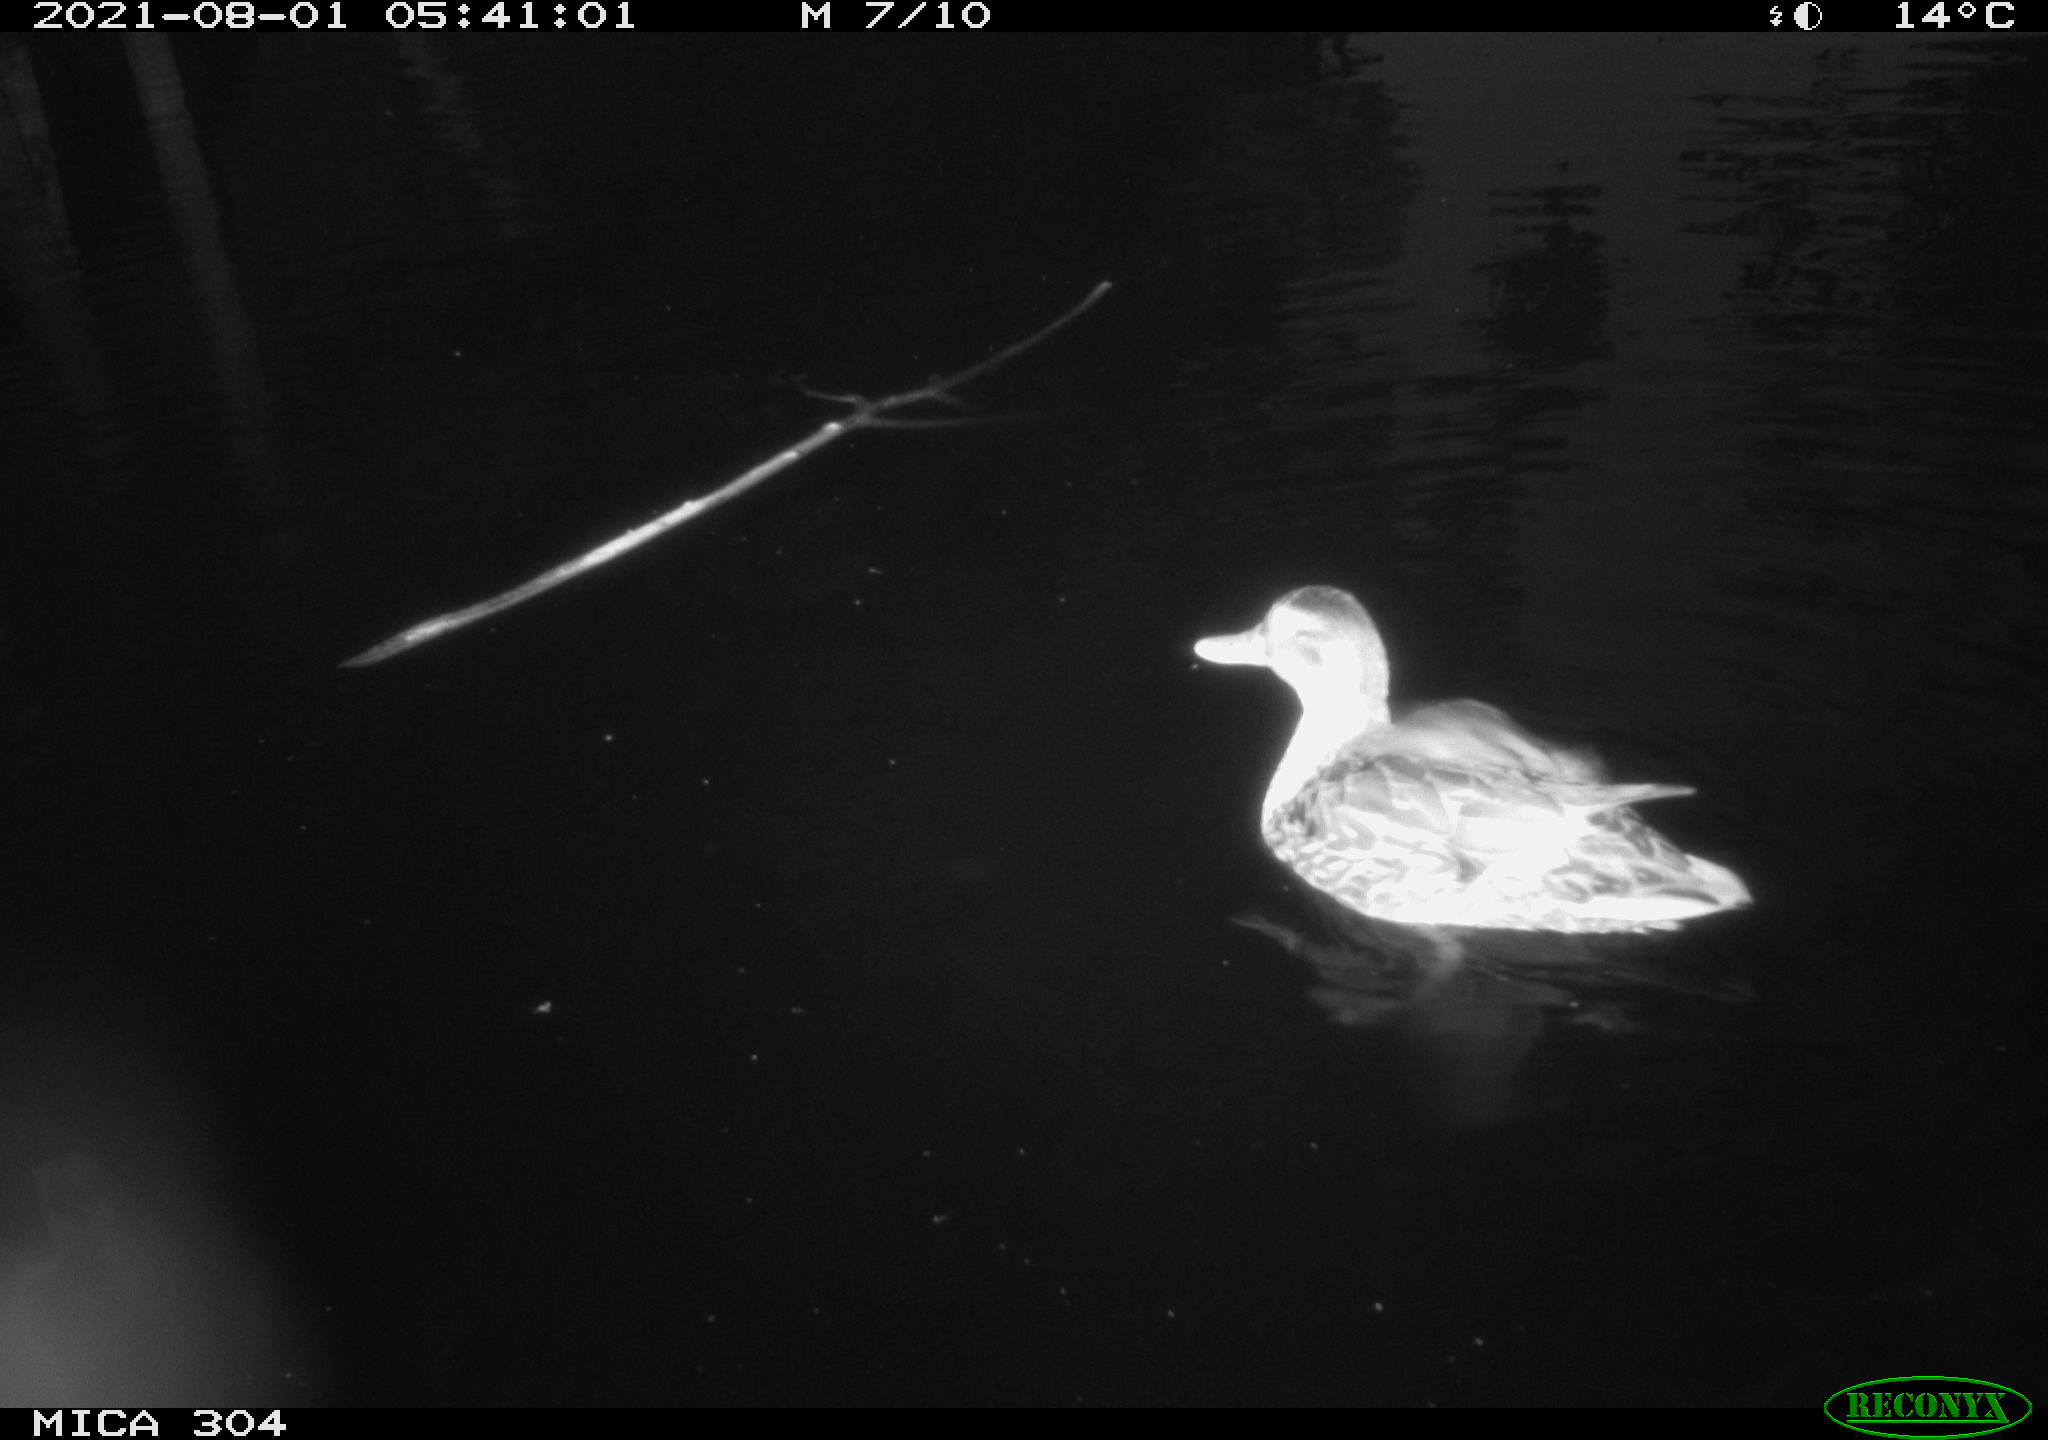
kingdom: Animalia
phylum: Chordata
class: Aves
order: Anseriformes
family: Anatidae
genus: Anas
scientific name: Anas platyrhynchos
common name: Mallard
